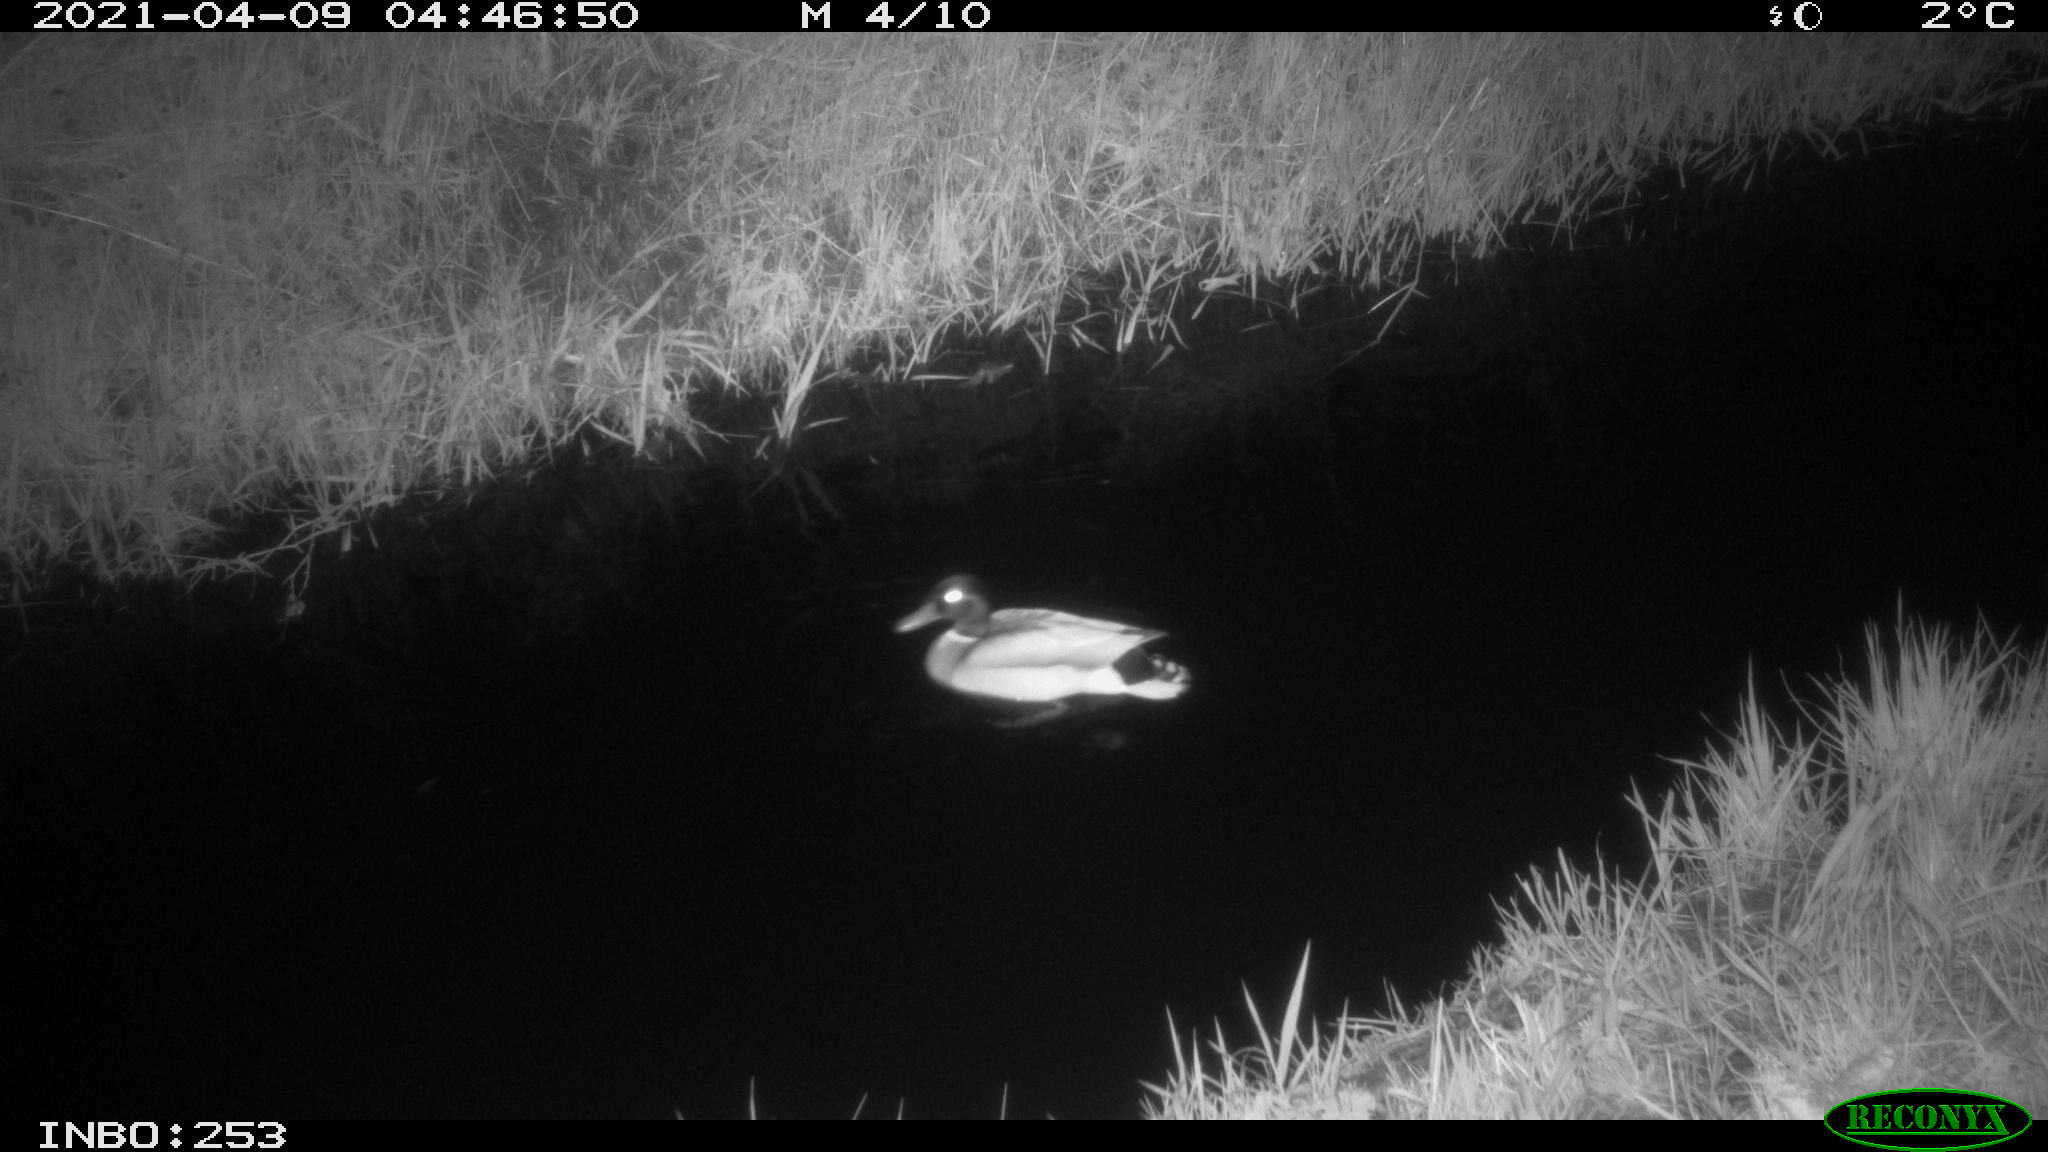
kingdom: Animalia
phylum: Chordata
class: Aves
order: Anseriformes
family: Anatidae
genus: Anas
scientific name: Anas platyrhynchos
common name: Mallard
